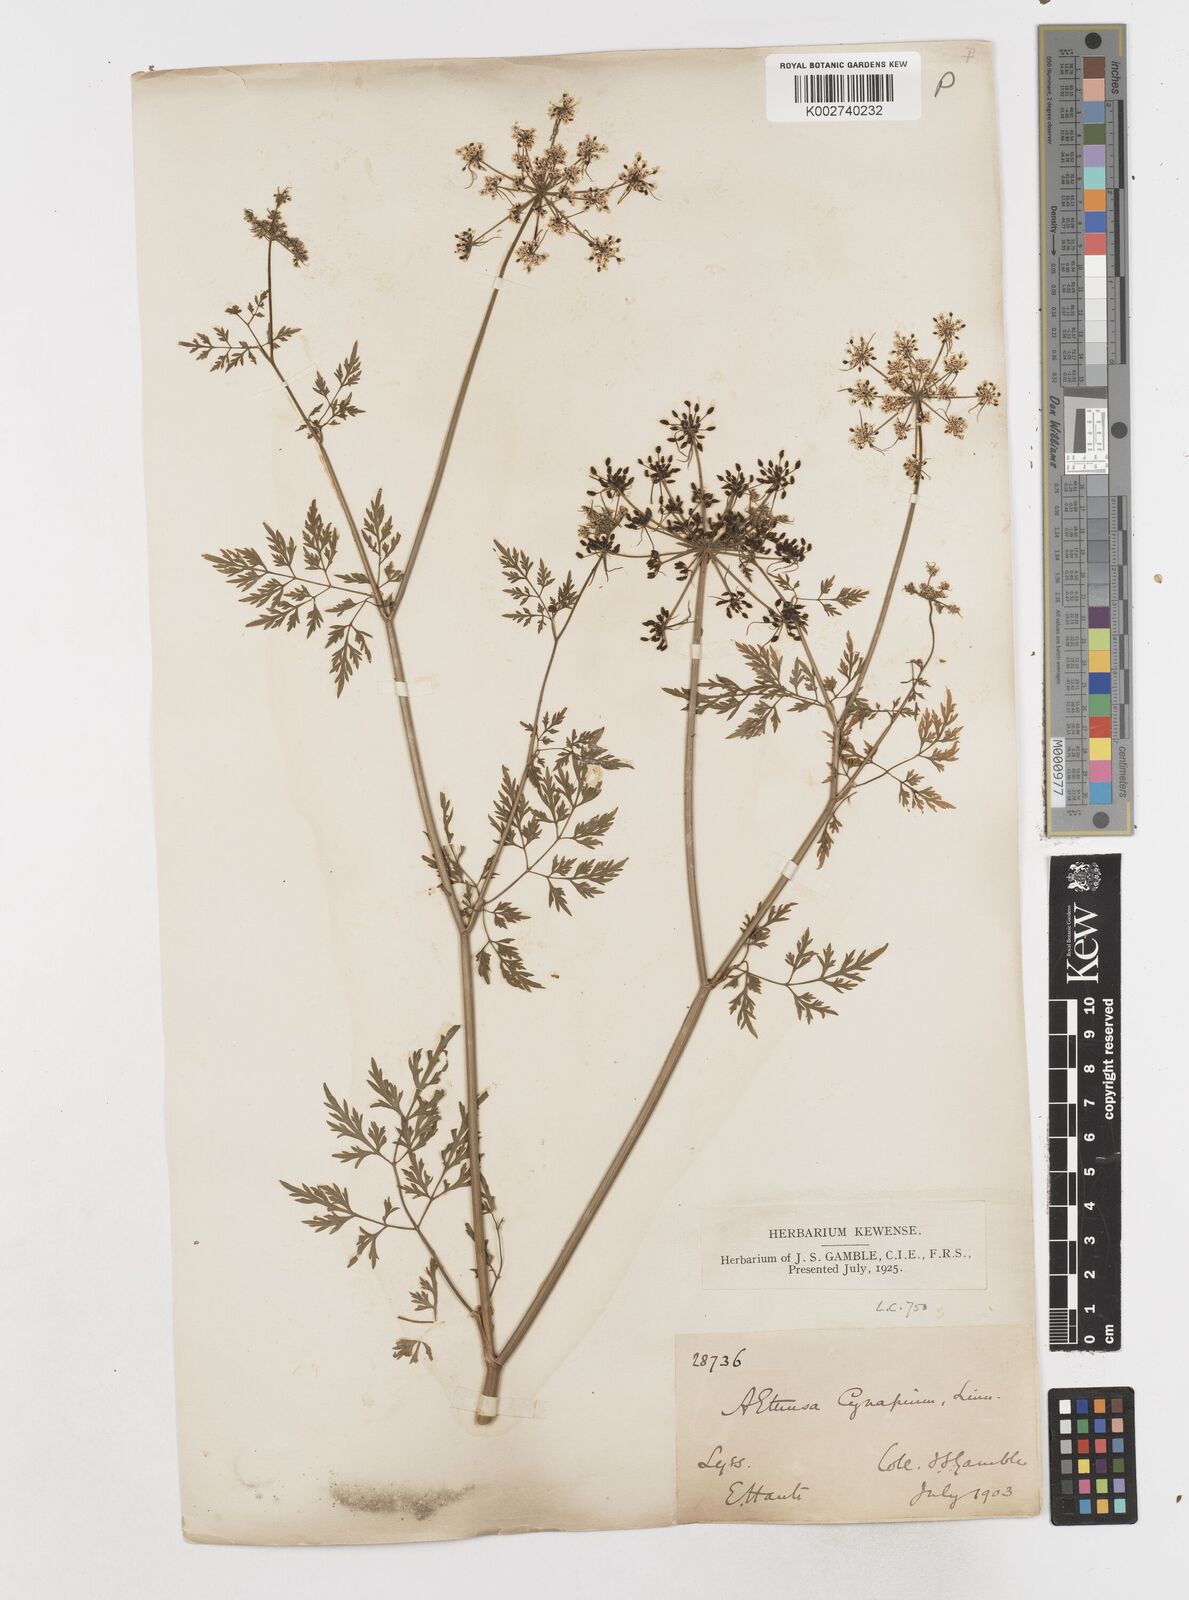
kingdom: Plantae
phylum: Tracheophyta
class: Magnoliopsida
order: Apiales
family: Apiaceae
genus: Aethusa
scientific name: Aethusa cynapium
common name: Fool's parsley
